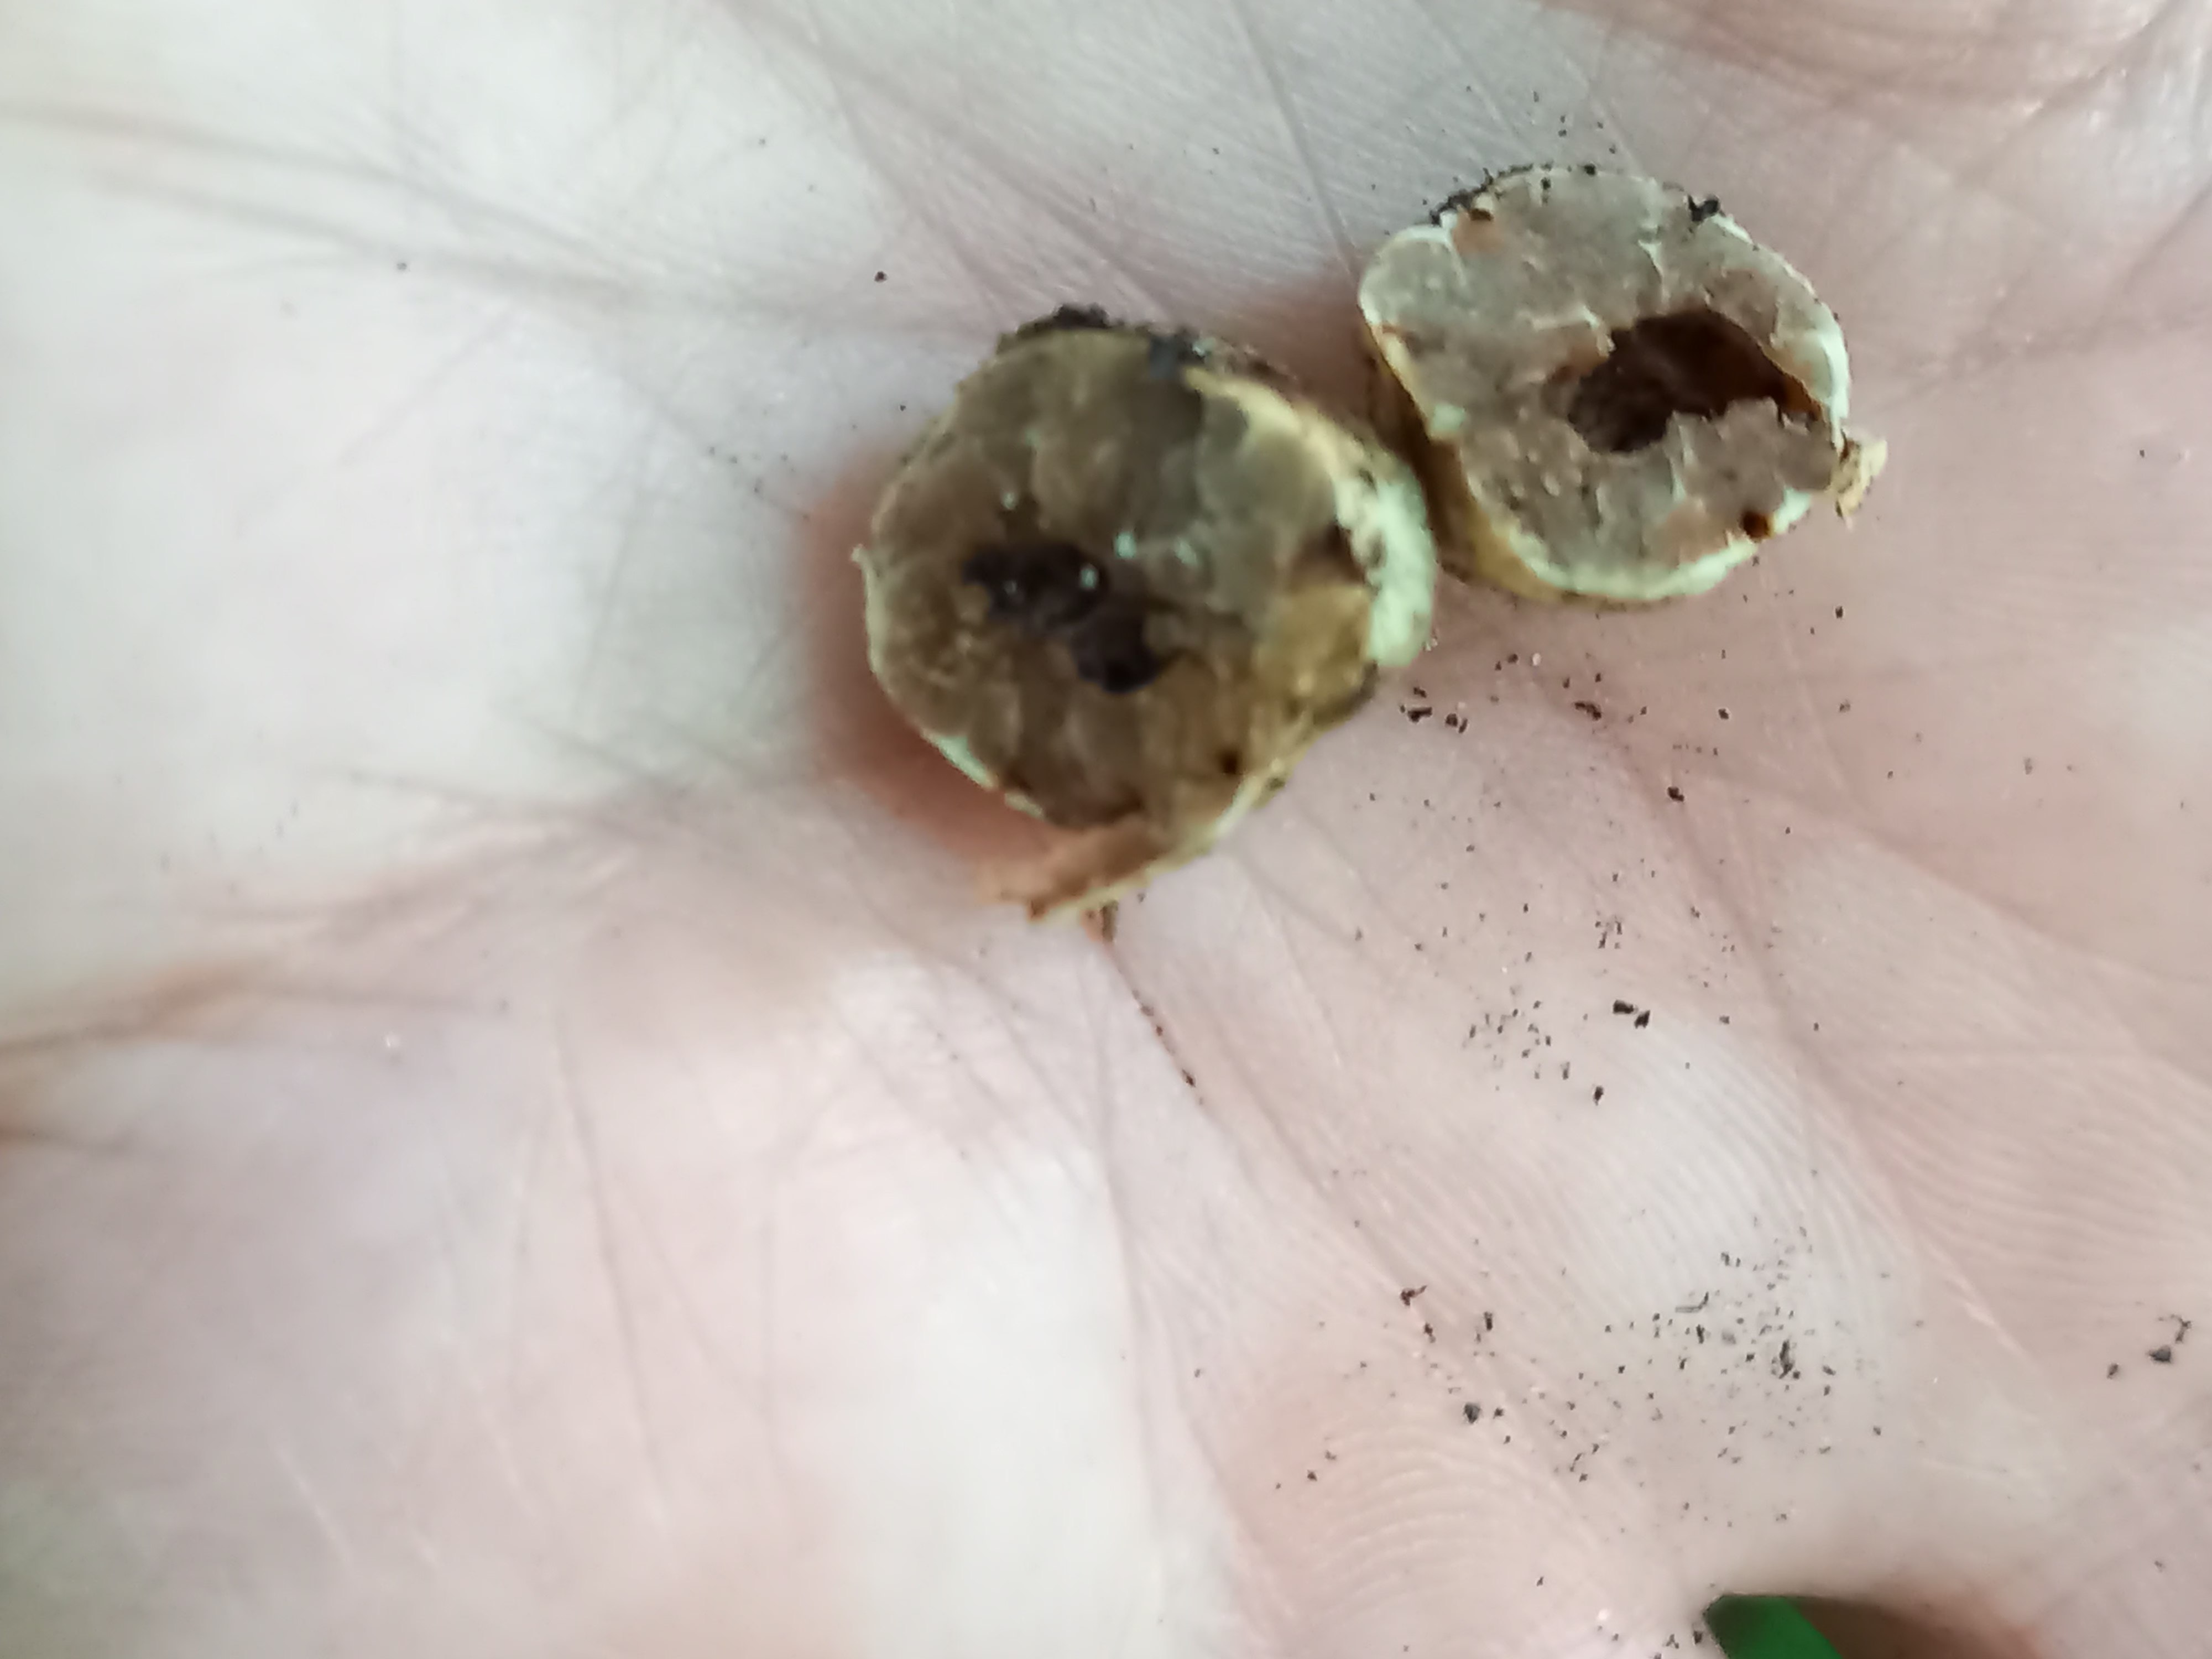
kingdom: Fungi
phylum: Ascomycota
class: Pezizomycetes
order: Pezizales
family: Tuberaceae
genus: Tuber
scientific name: Tuber
